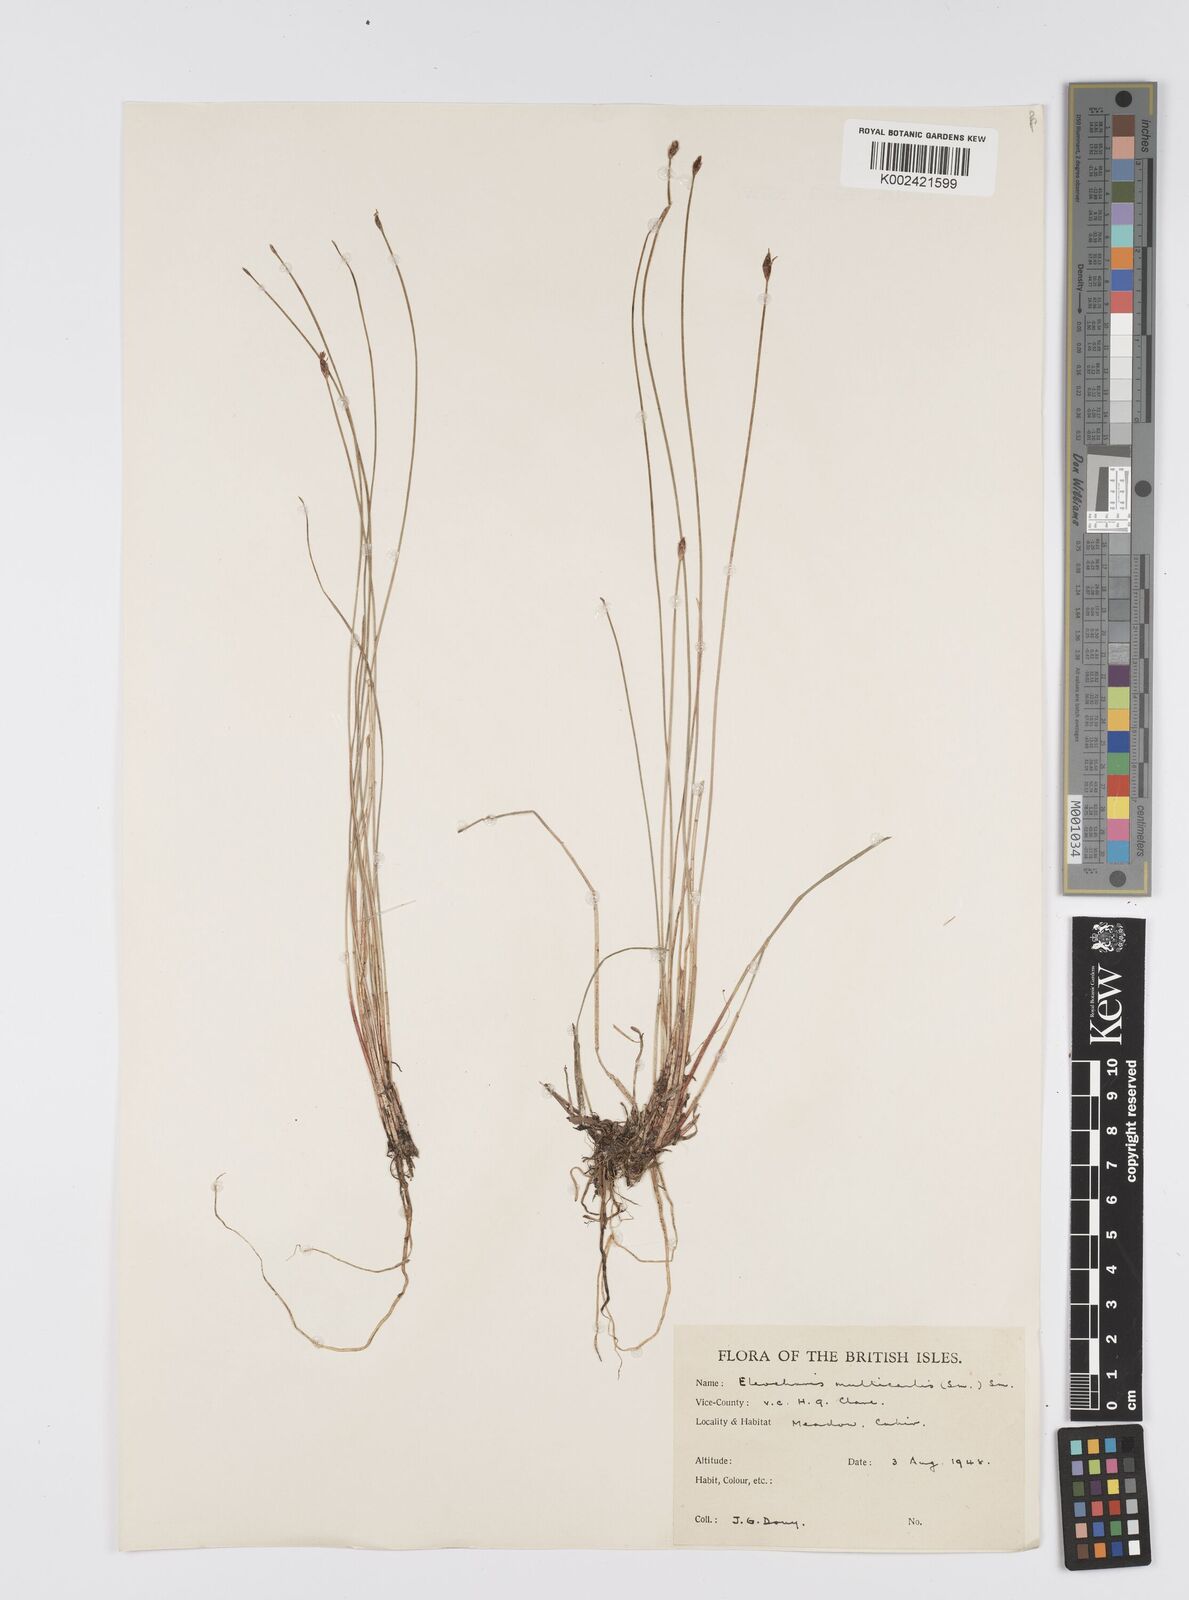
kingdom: Plantae
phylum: Tracheophyta
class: Liliopsida
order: Poales
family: Cyperaceae
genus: Eleocharis
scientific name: Eleocharis multicaulis
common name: Many-stalked spike-rush
